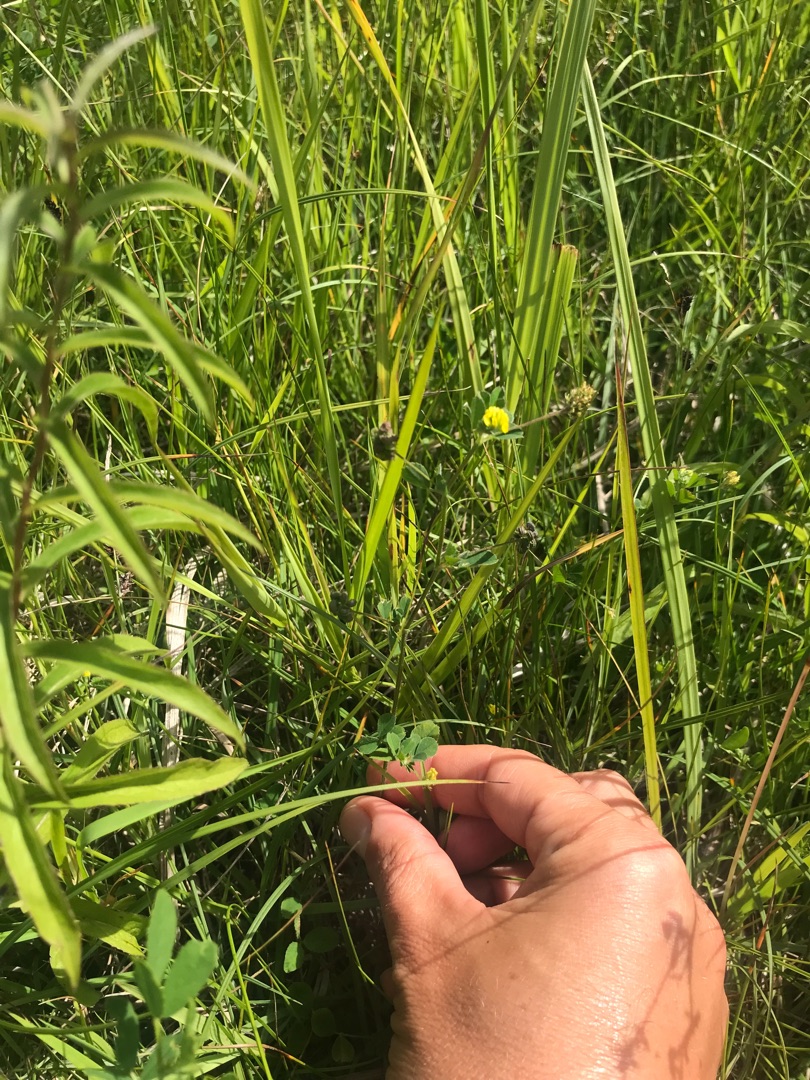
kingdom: Plantae
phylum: Tracheophyta
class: Magnoliopsida
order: Fabales
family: Fabaceae
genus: Medicago
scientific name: Medicago lupulina
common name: Humle-sneglebælg
